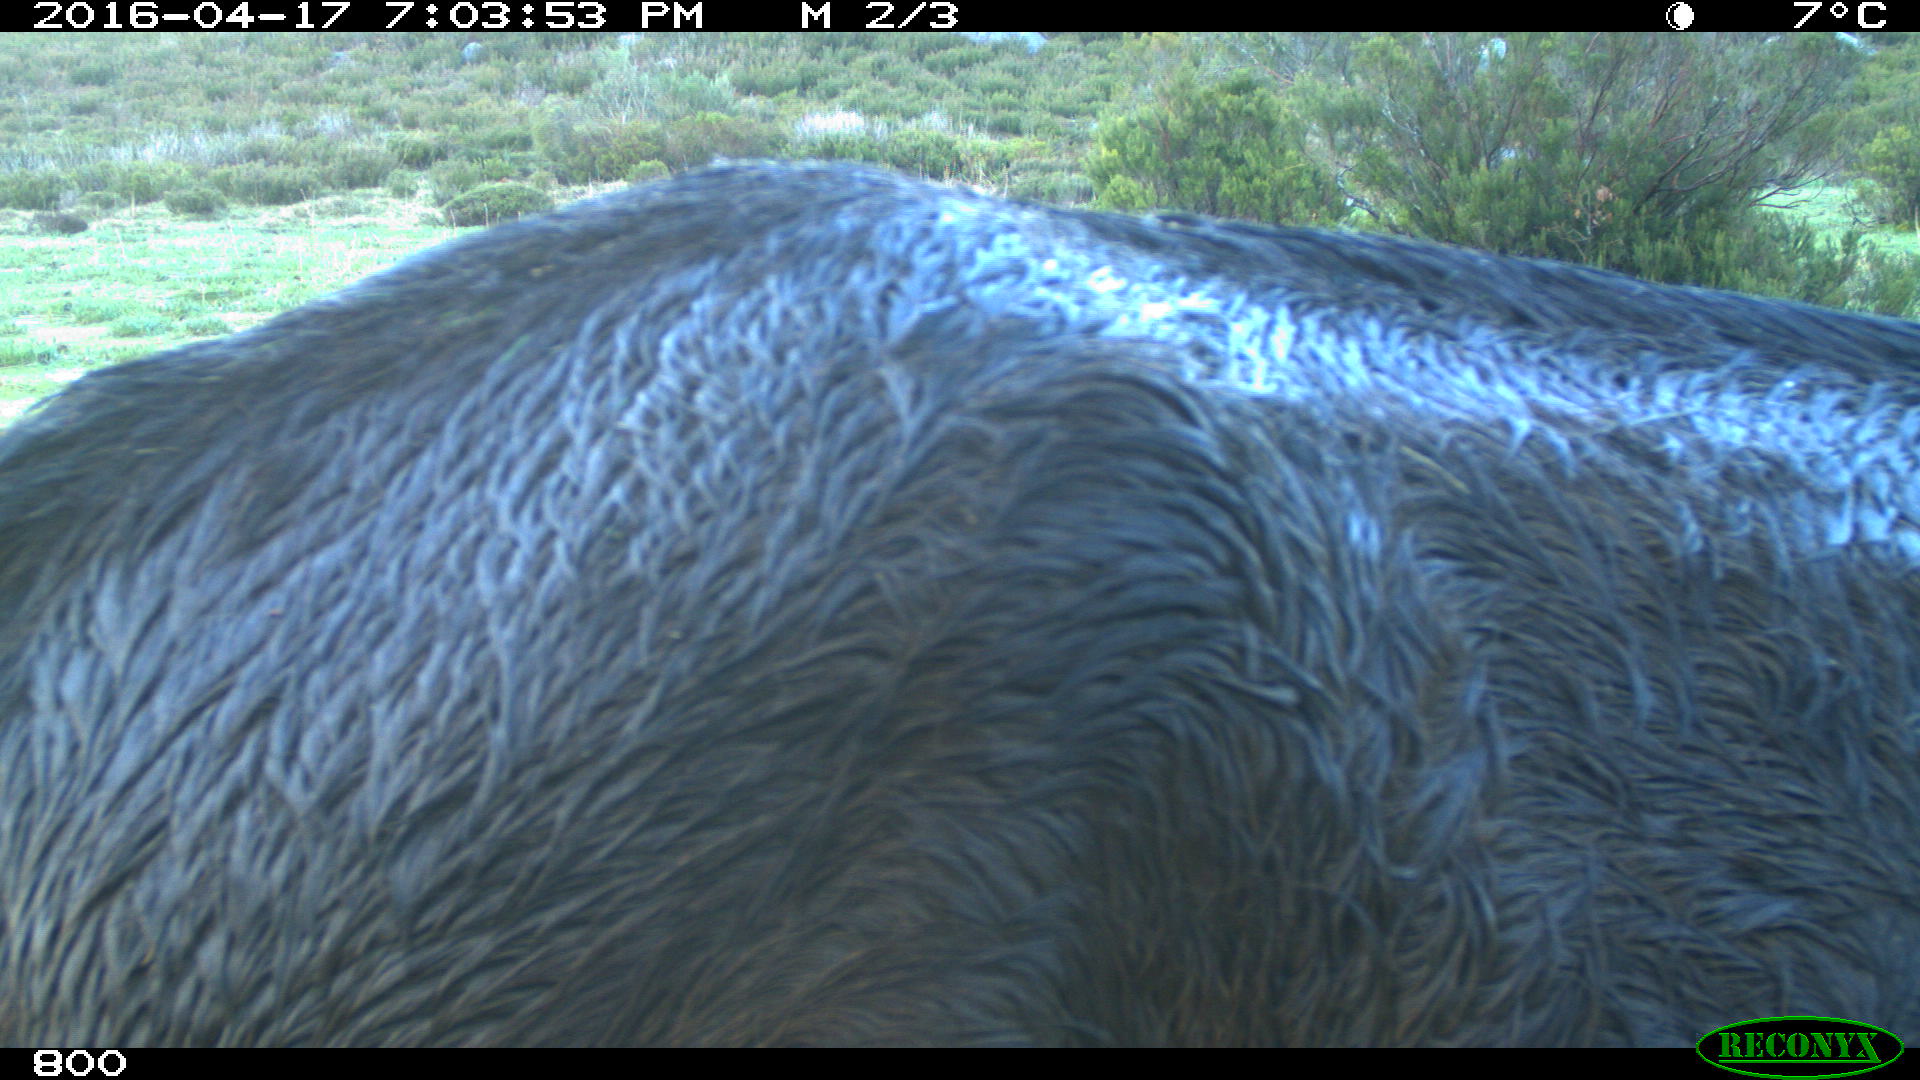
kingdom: Animalia
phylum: Chordata
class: Mammalia
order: Perissodactyla
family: Equidae
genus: Equus
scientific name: Equus caballus
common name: Horse
